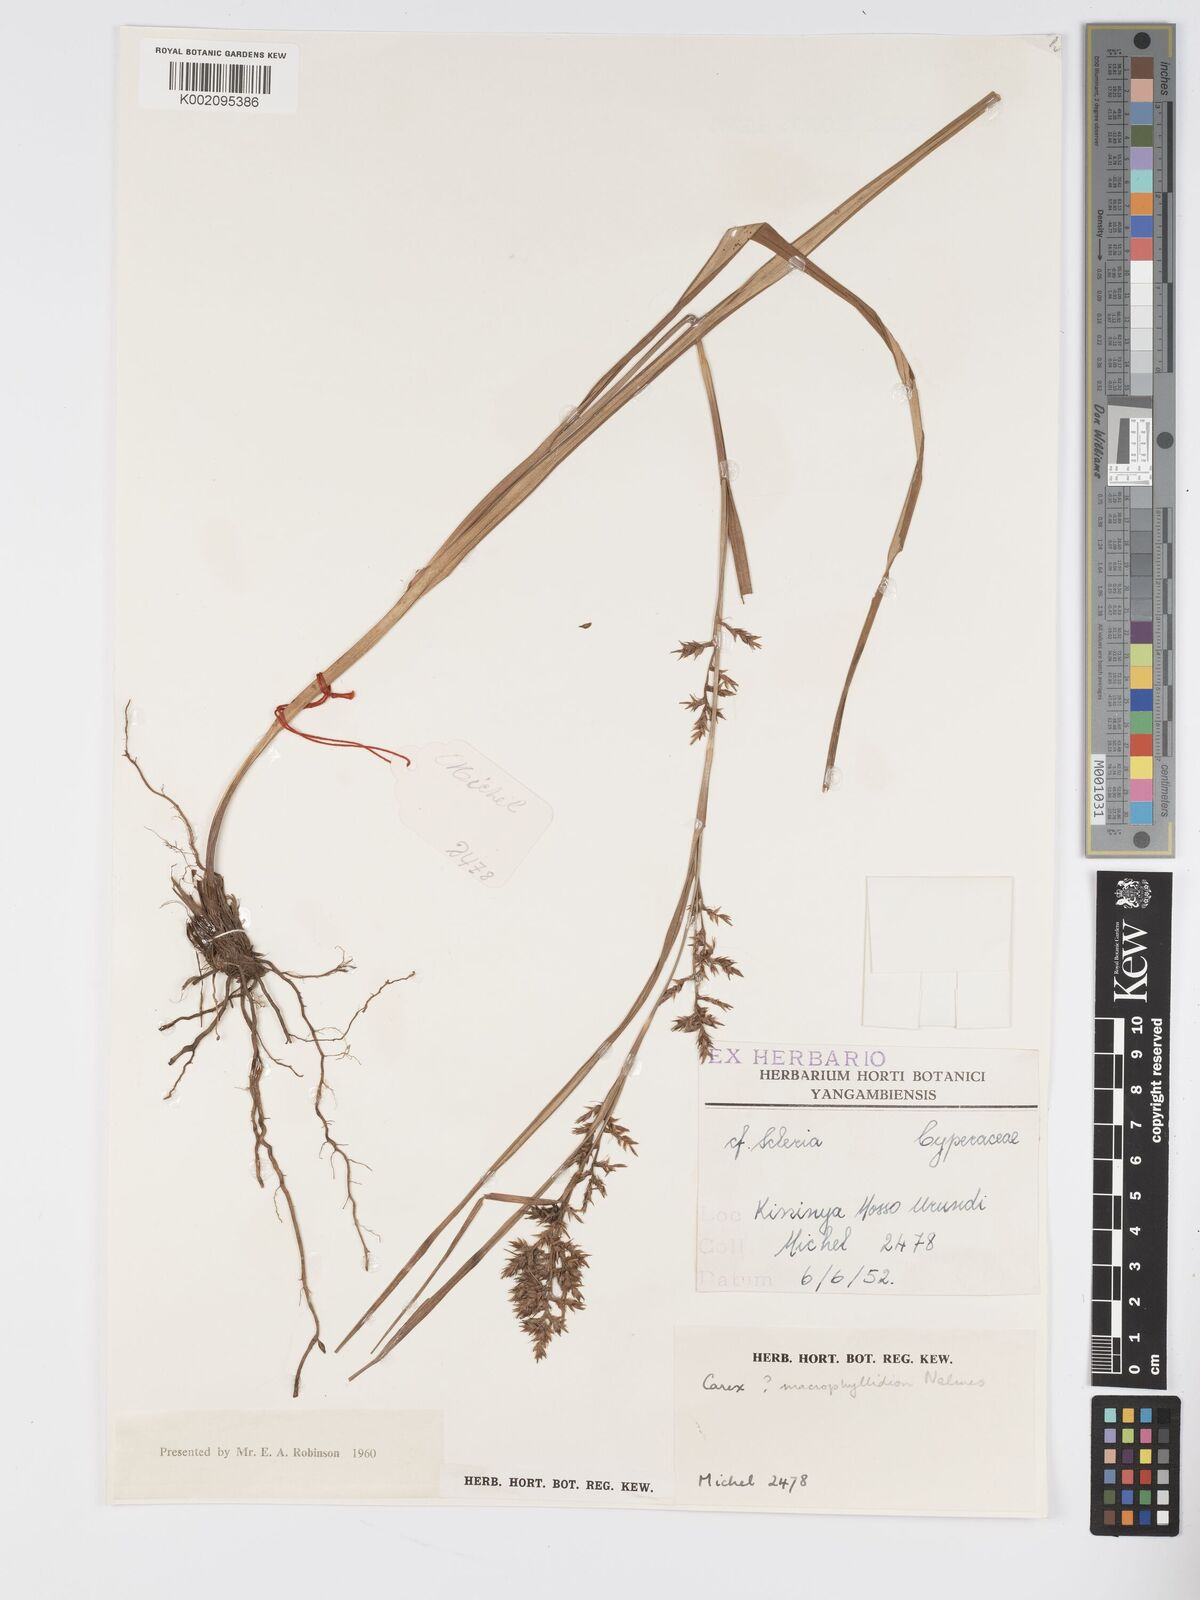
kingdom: Plantae
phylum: Tracheophyta
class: Liliopsida
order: Poales
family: Cyperaceae
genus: Carex
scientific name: Carex macrophyllidion
